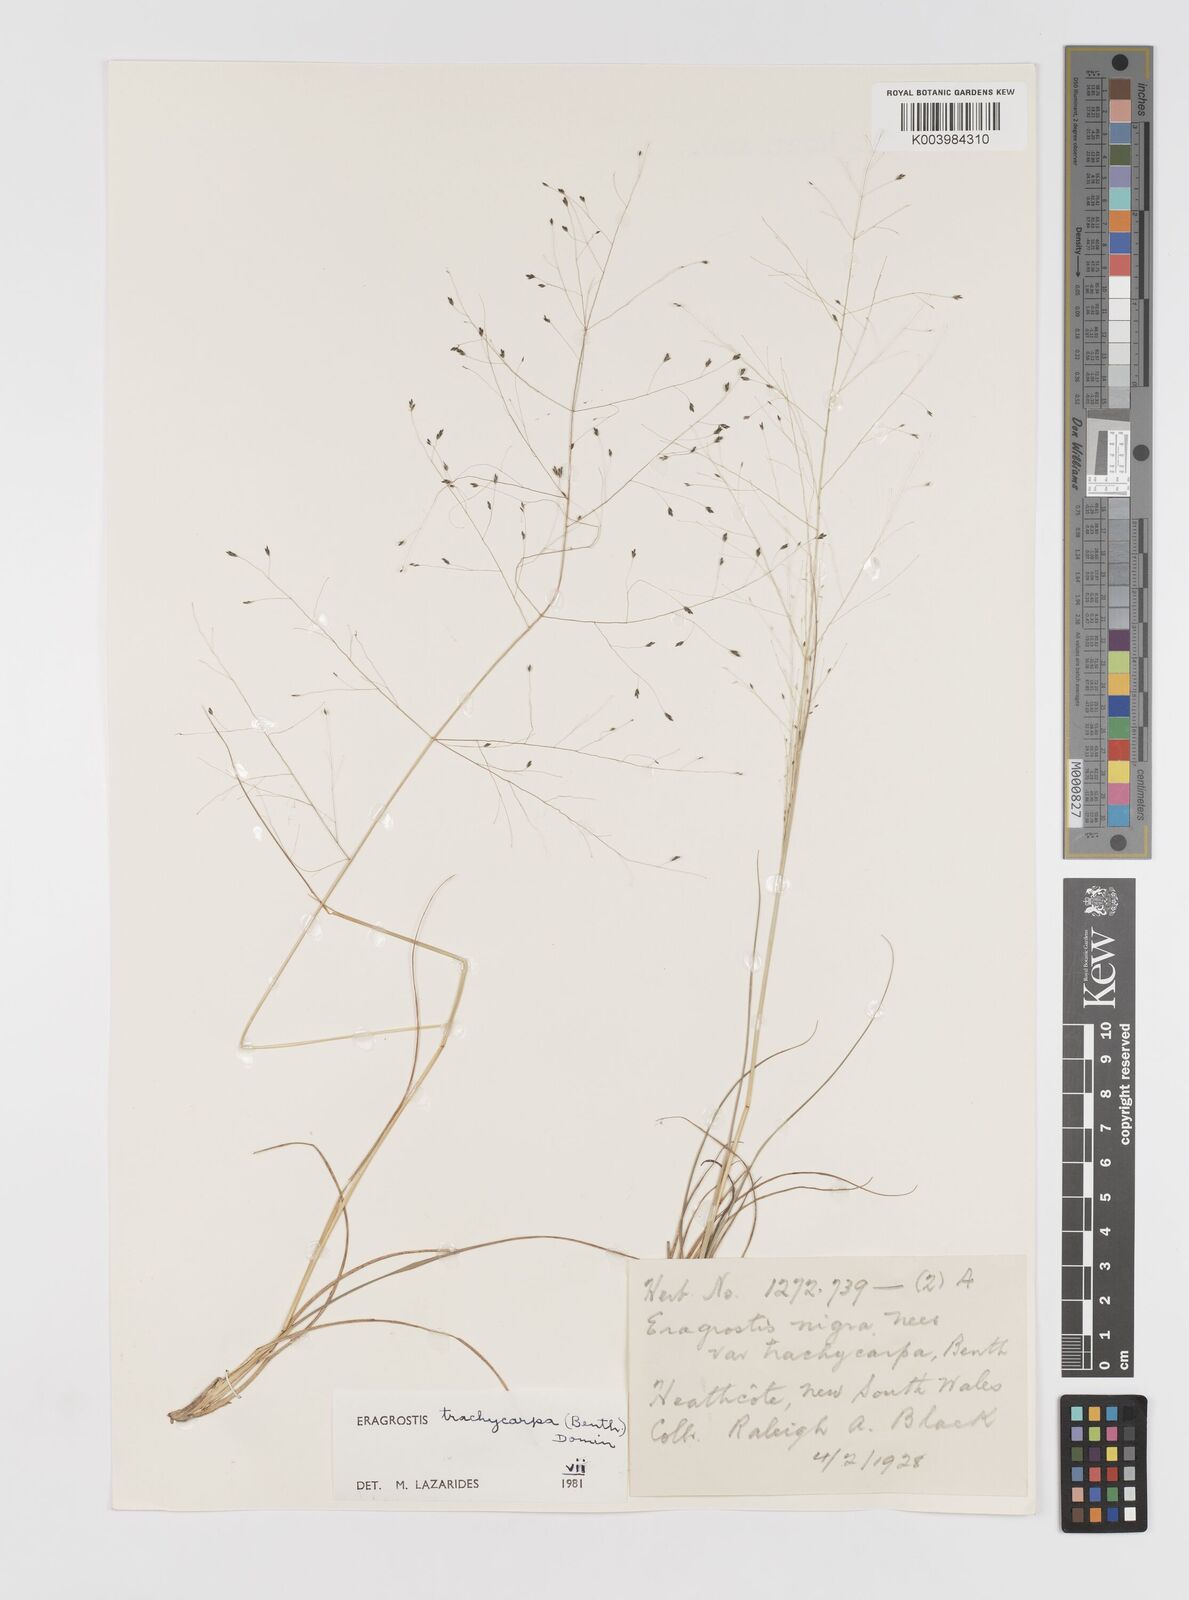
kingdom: Plantae
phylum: Tracheophyta
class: Liliopsida
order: Poales
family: Poaceae
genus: Eragrostis
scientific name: Eragrostis trachycarpa
